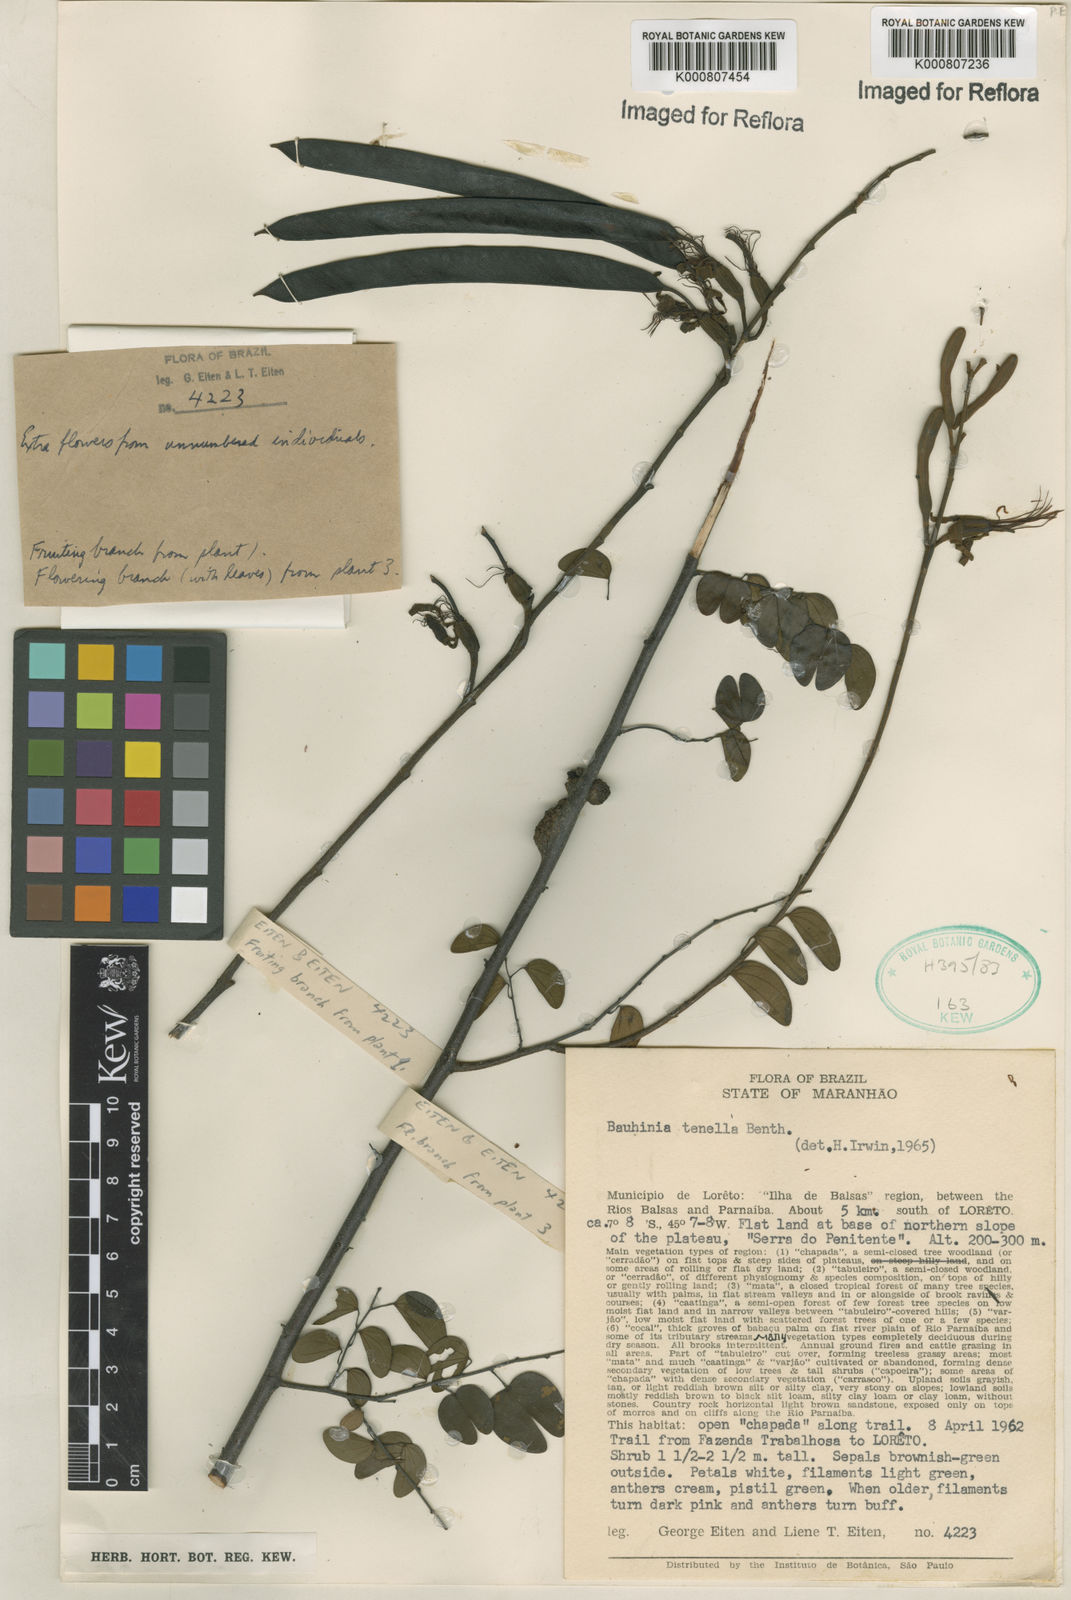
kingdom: Plantae
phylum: Tracheophyta
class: Magnoliopsida
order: Fabales
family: Fabaceae
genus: Bauhinia
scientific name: Bauhinia tenella
